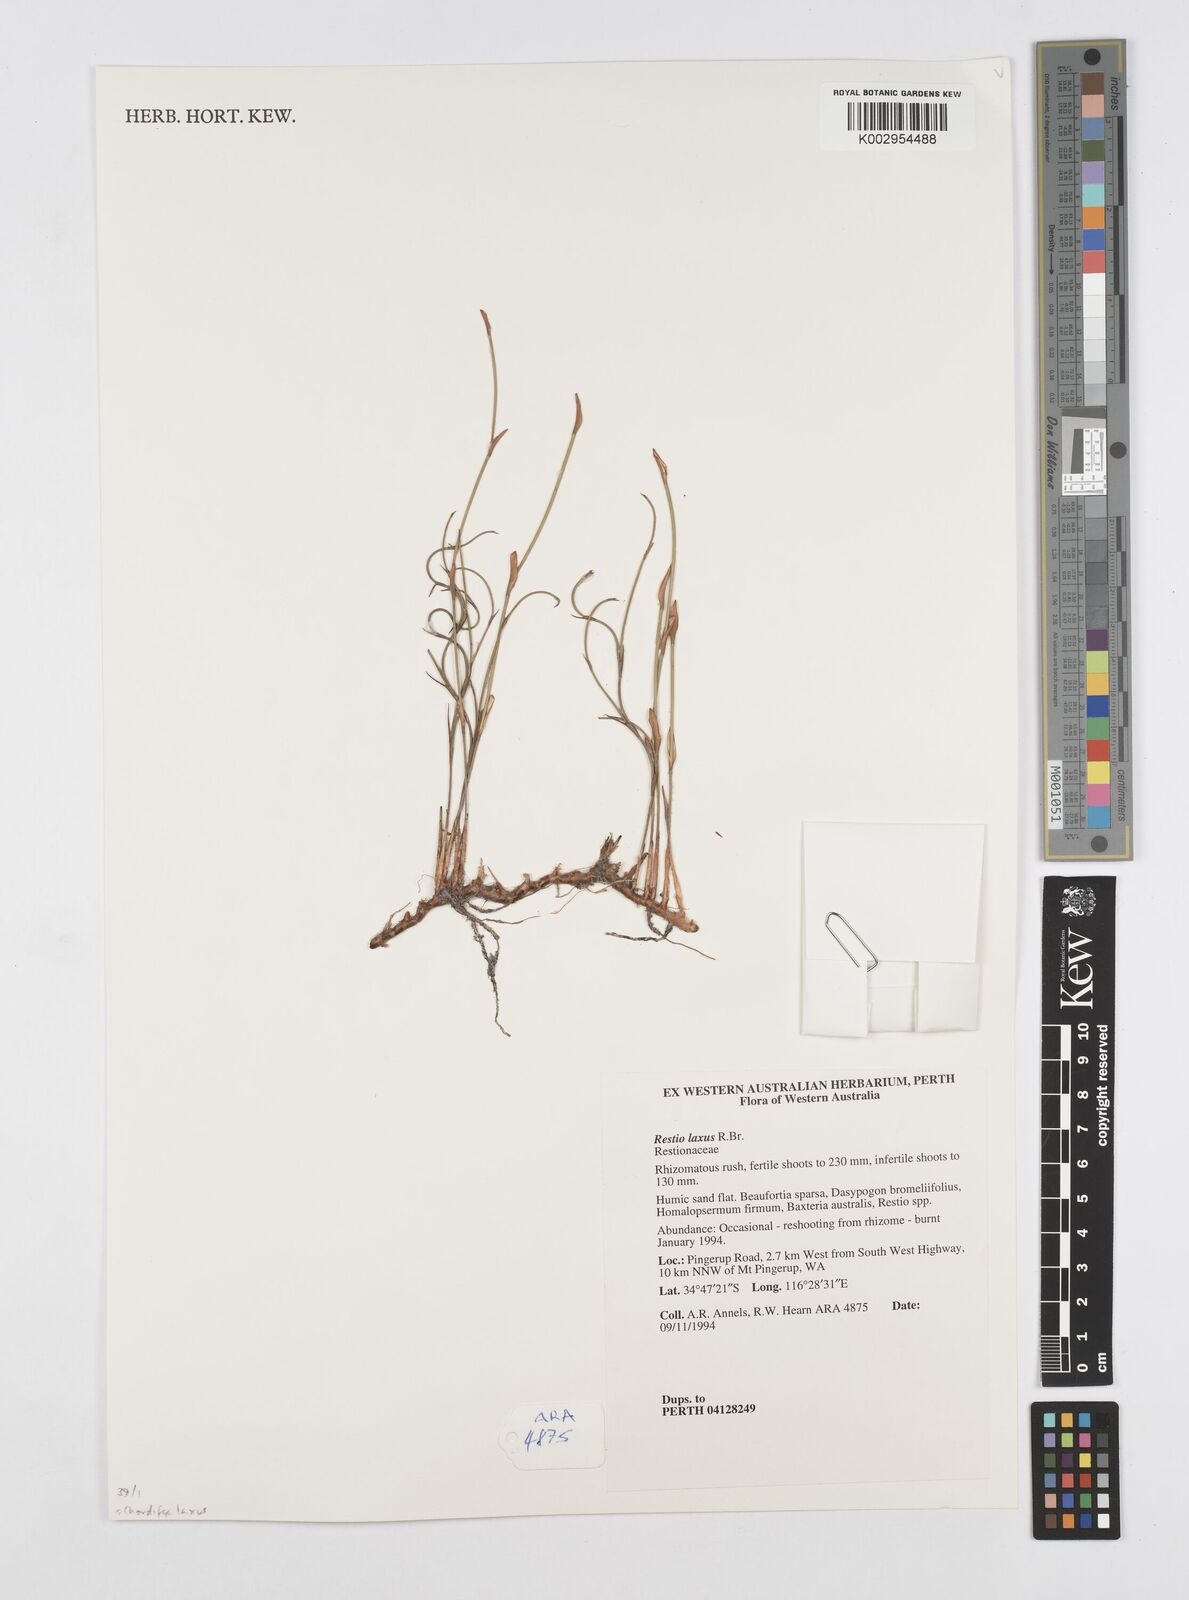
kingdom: Plantae
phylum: Tracheophyta
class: Liliopsida
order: Poales
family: Restionaceae
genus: Chordifex
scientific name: Chordifex laxus
